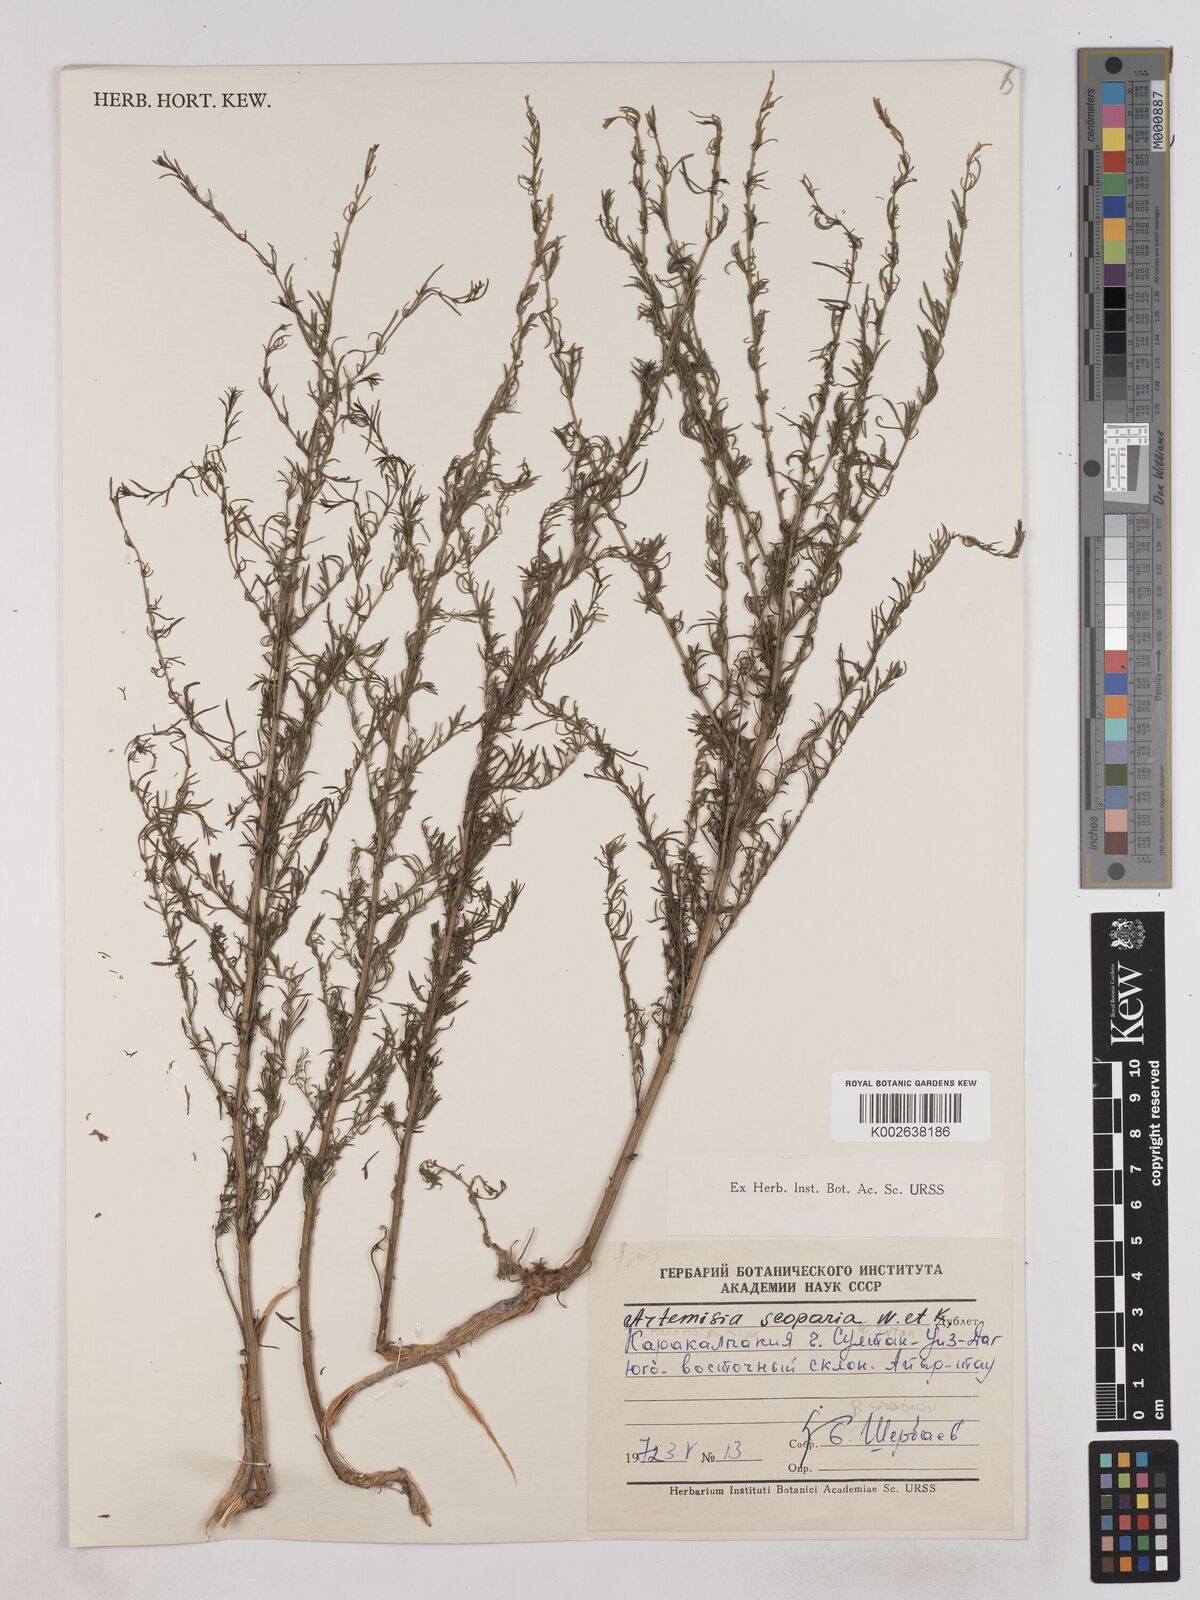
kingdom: Plantae
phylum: Tracheophyta
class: Magnoliopsida
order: Asterales
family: Asteraceae
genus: Artemisia
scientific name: Artemisia
